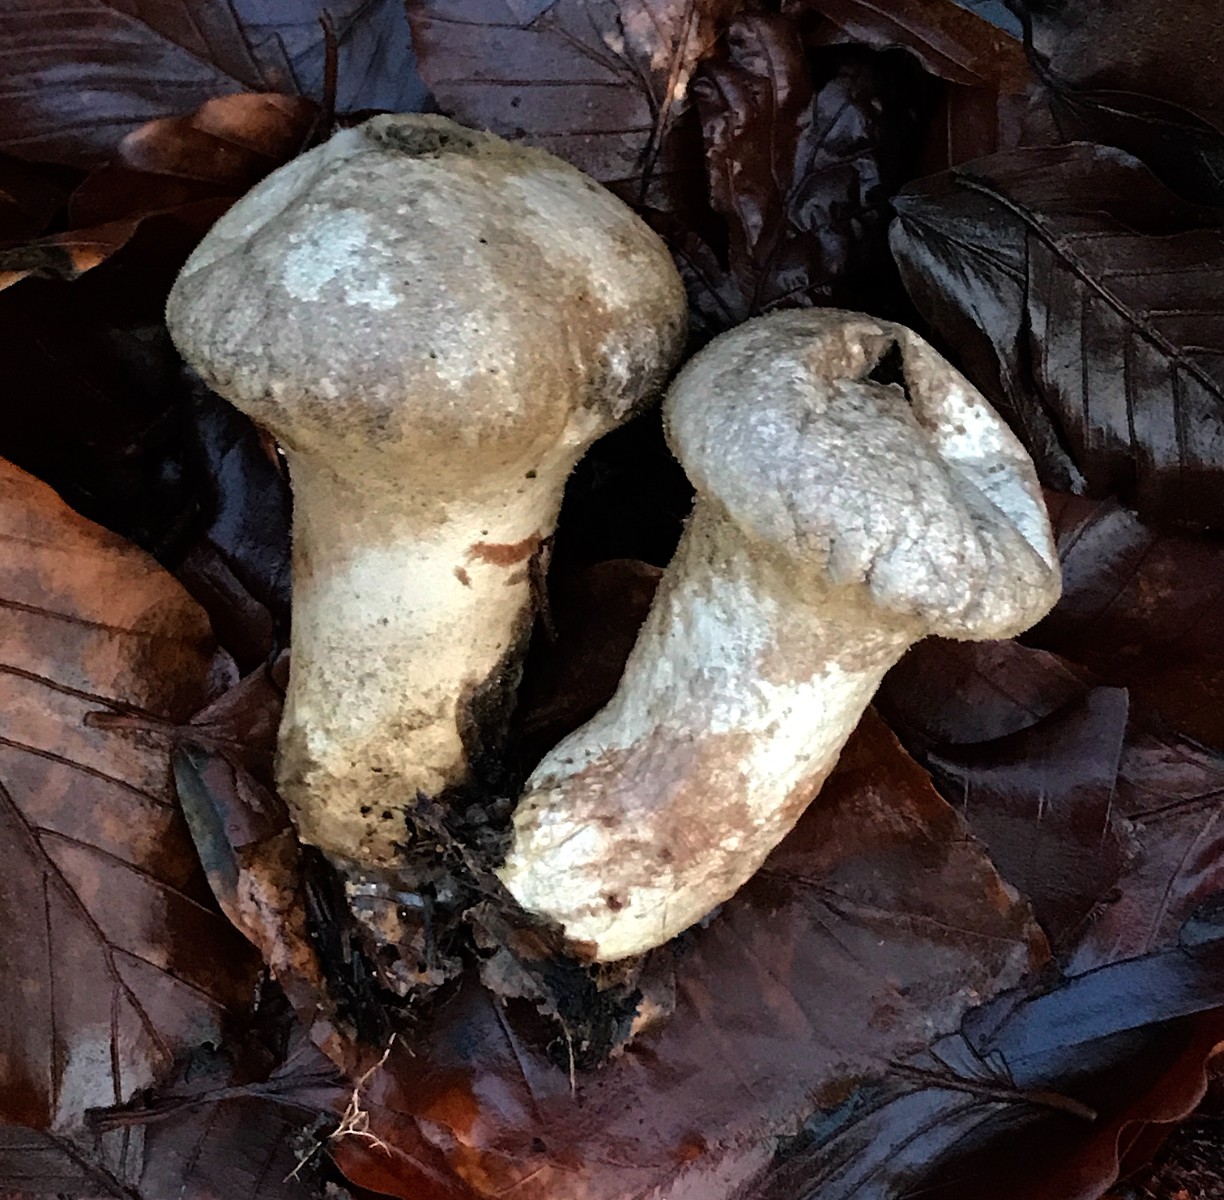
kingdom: Fungi
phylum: Basidiomycota
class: Agaricomycetes
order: Agaricales
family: Agaricaceae
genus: Lycoperdon
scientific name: Lycoperdon
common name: støvbold
